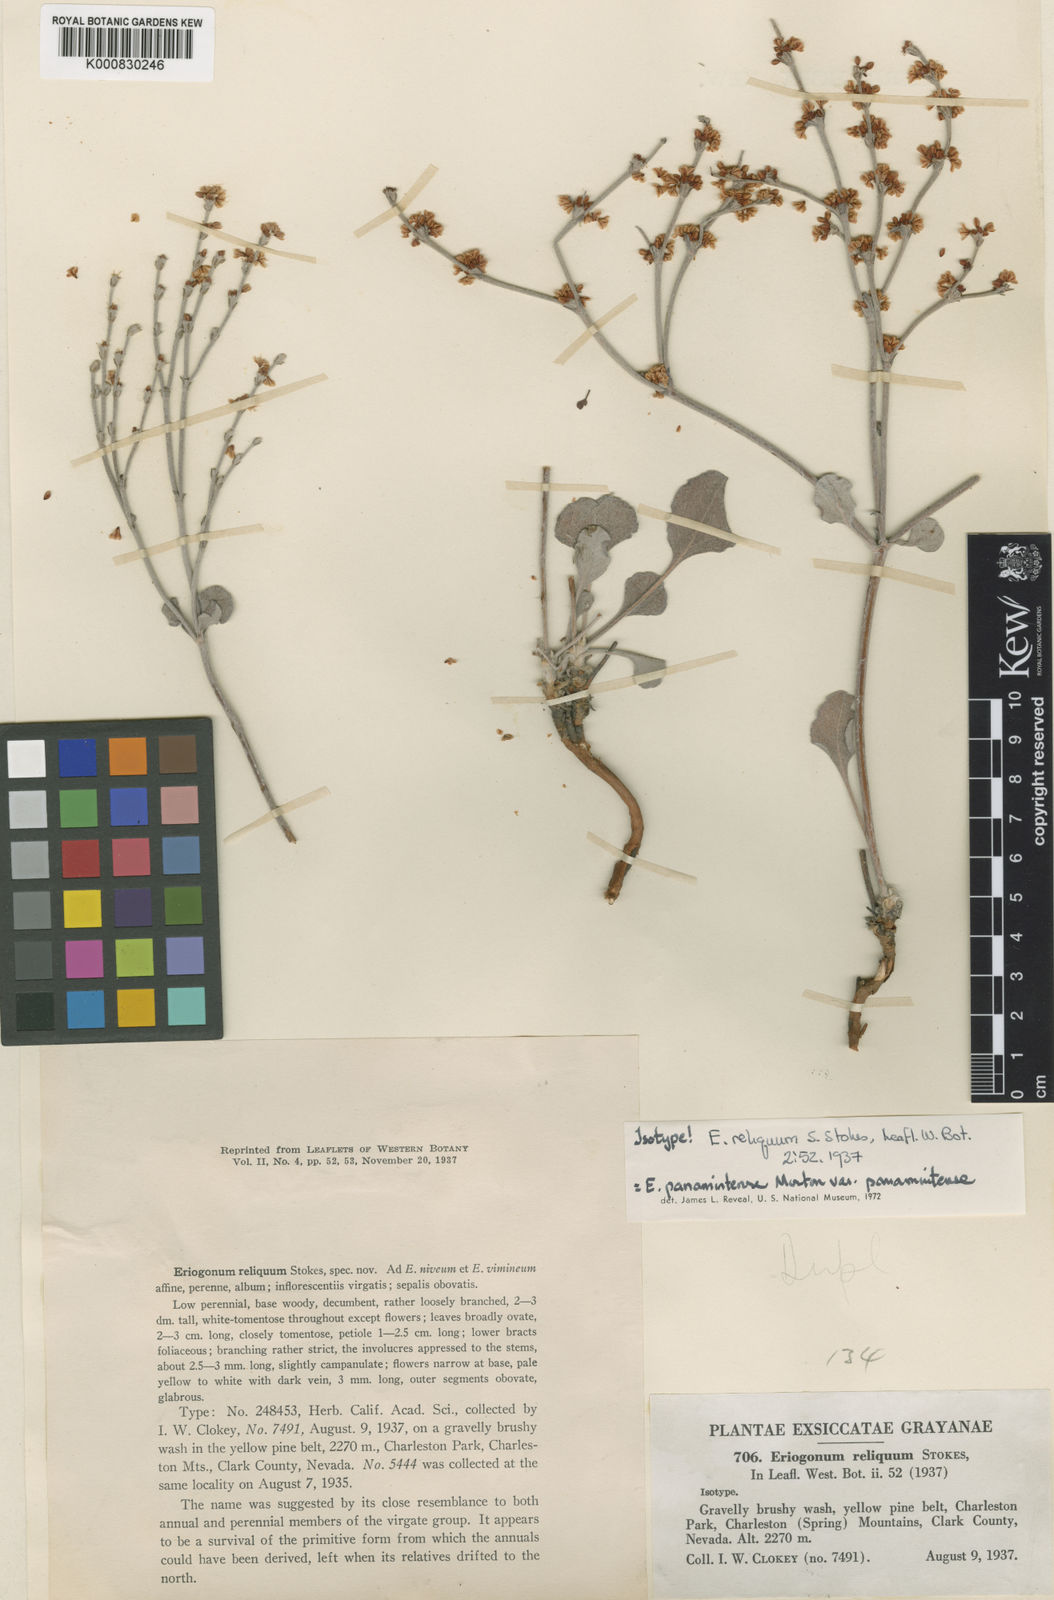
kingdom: Plantae
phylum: Tracheophyta
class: Magnoliopsida
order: Caryophyllales
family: Polygonaceae
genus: Eriogonum
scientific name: Eriogonum panamintense
